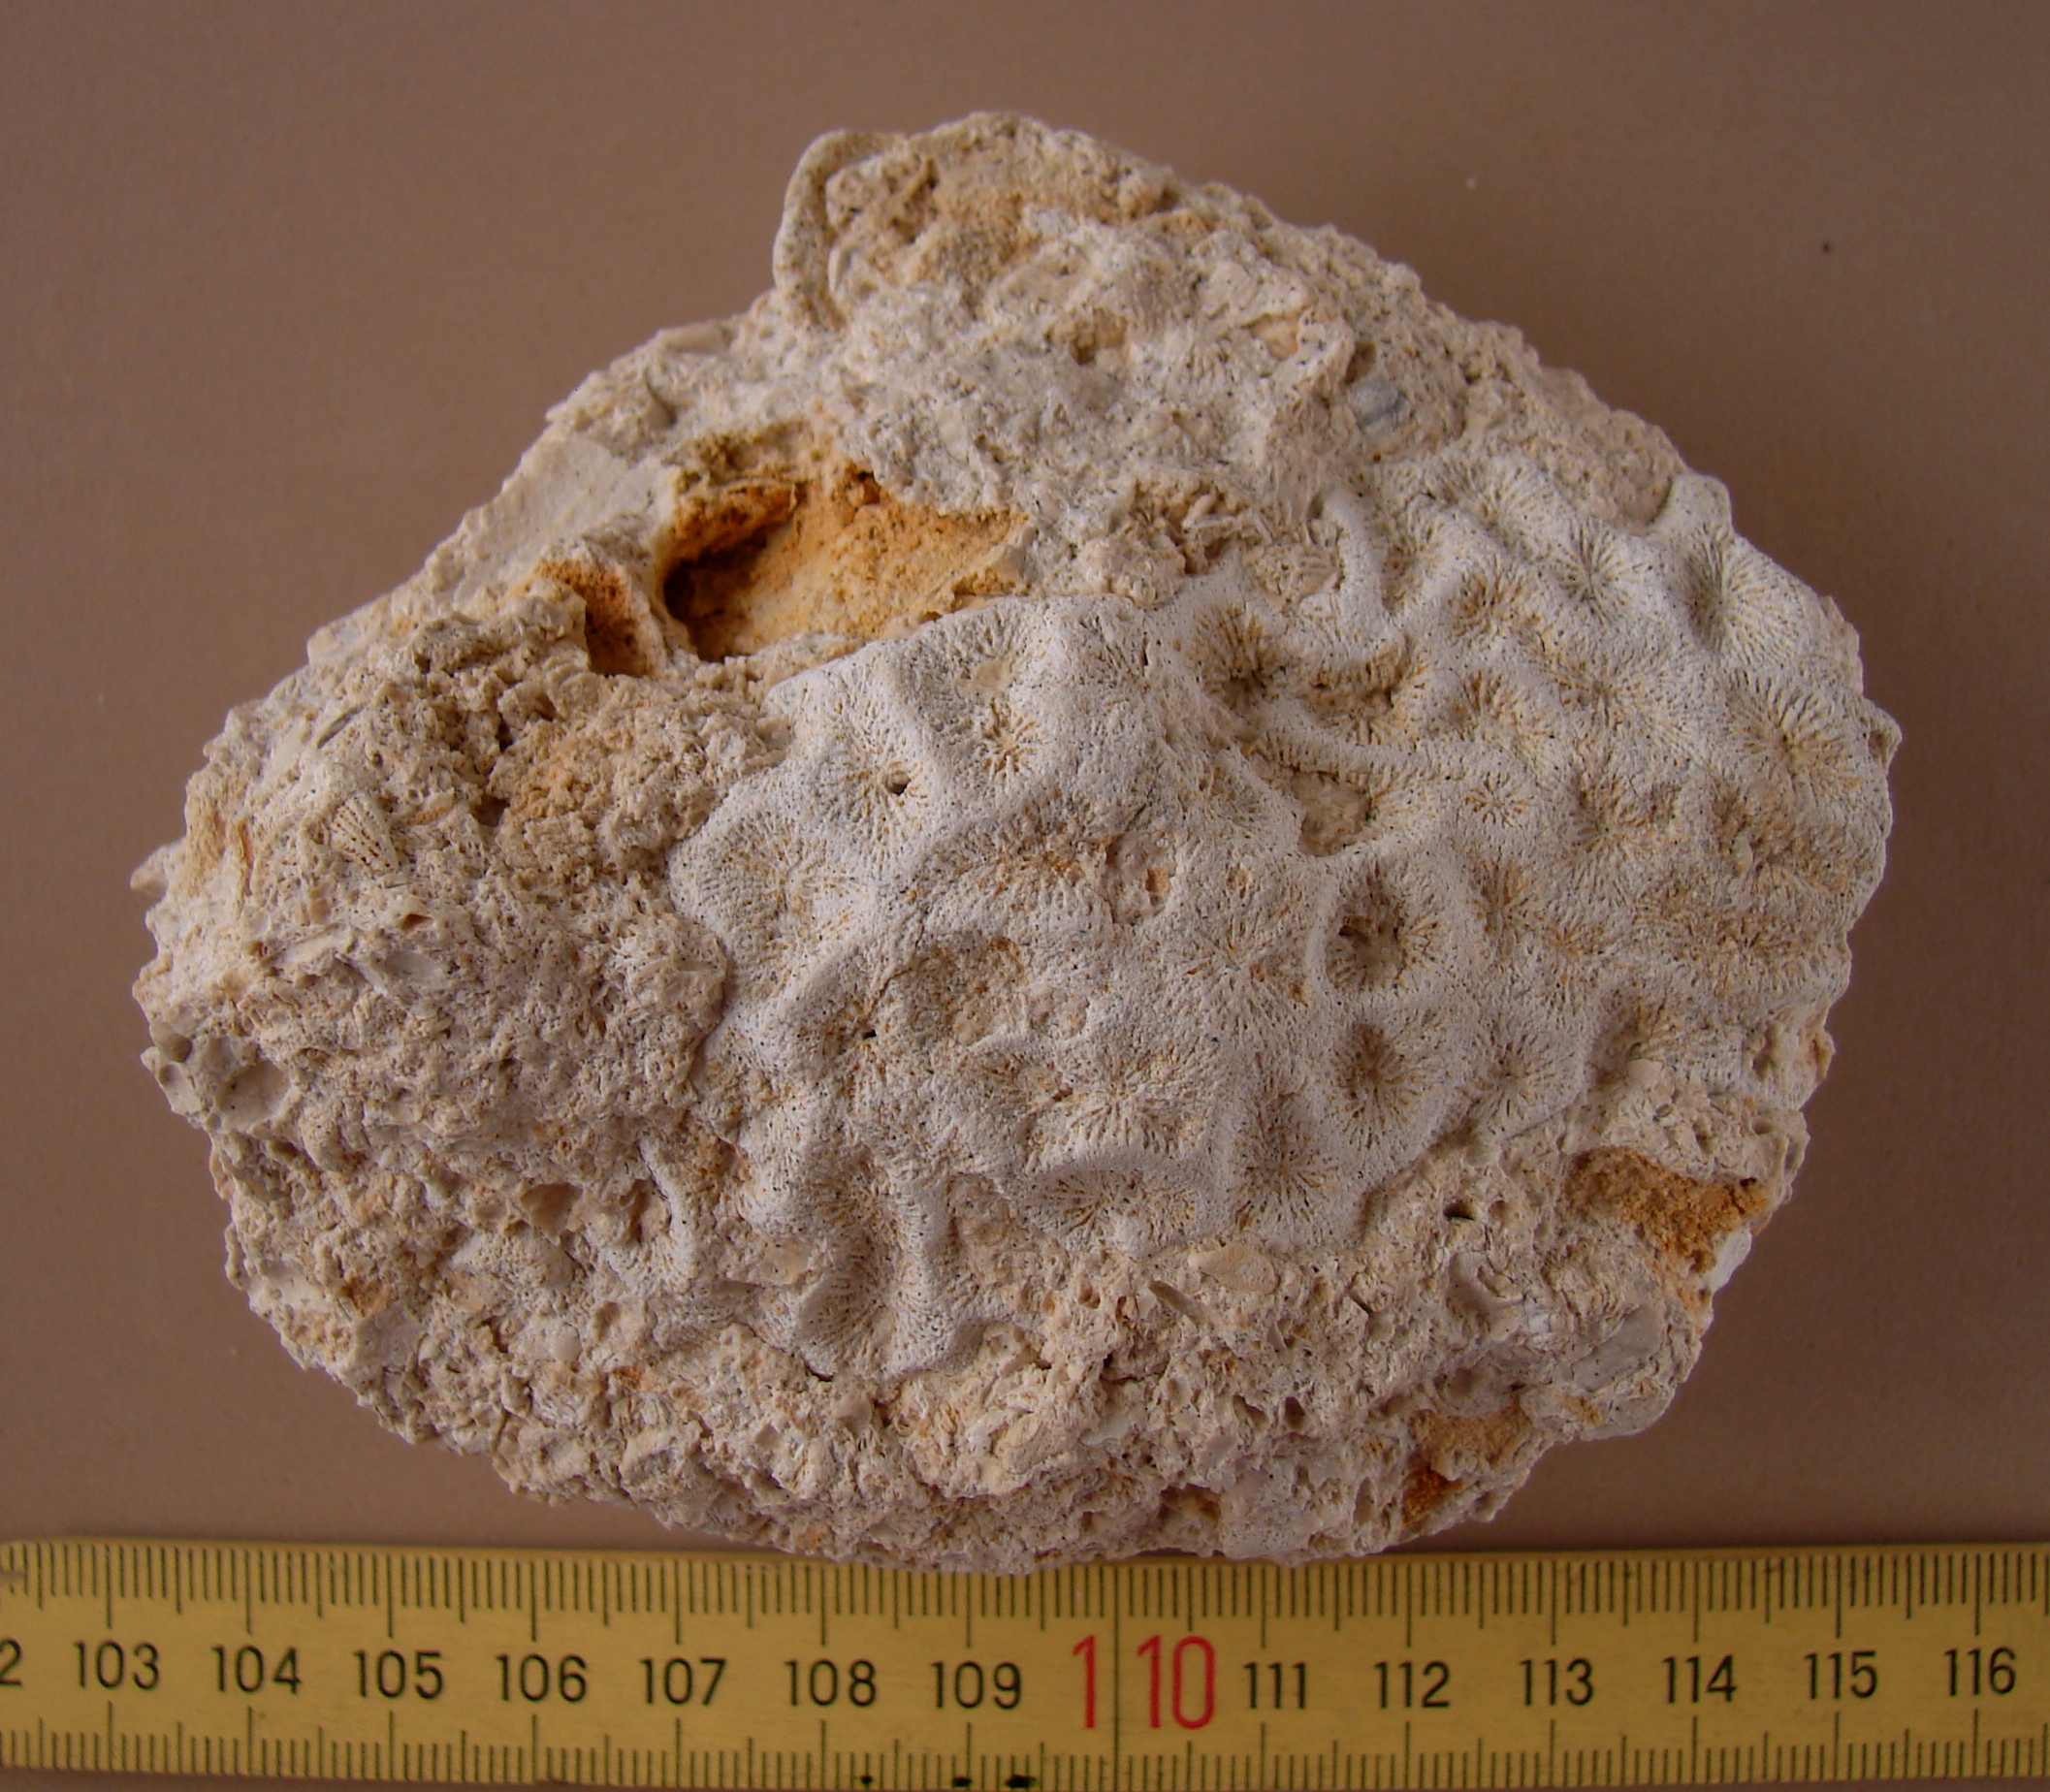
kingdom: Animalia
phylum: Cnidaria
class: Anthozoa
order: Scleractinia
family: Thecosmiliidae
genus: Isastrea
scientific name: Isastrea bernardiana
